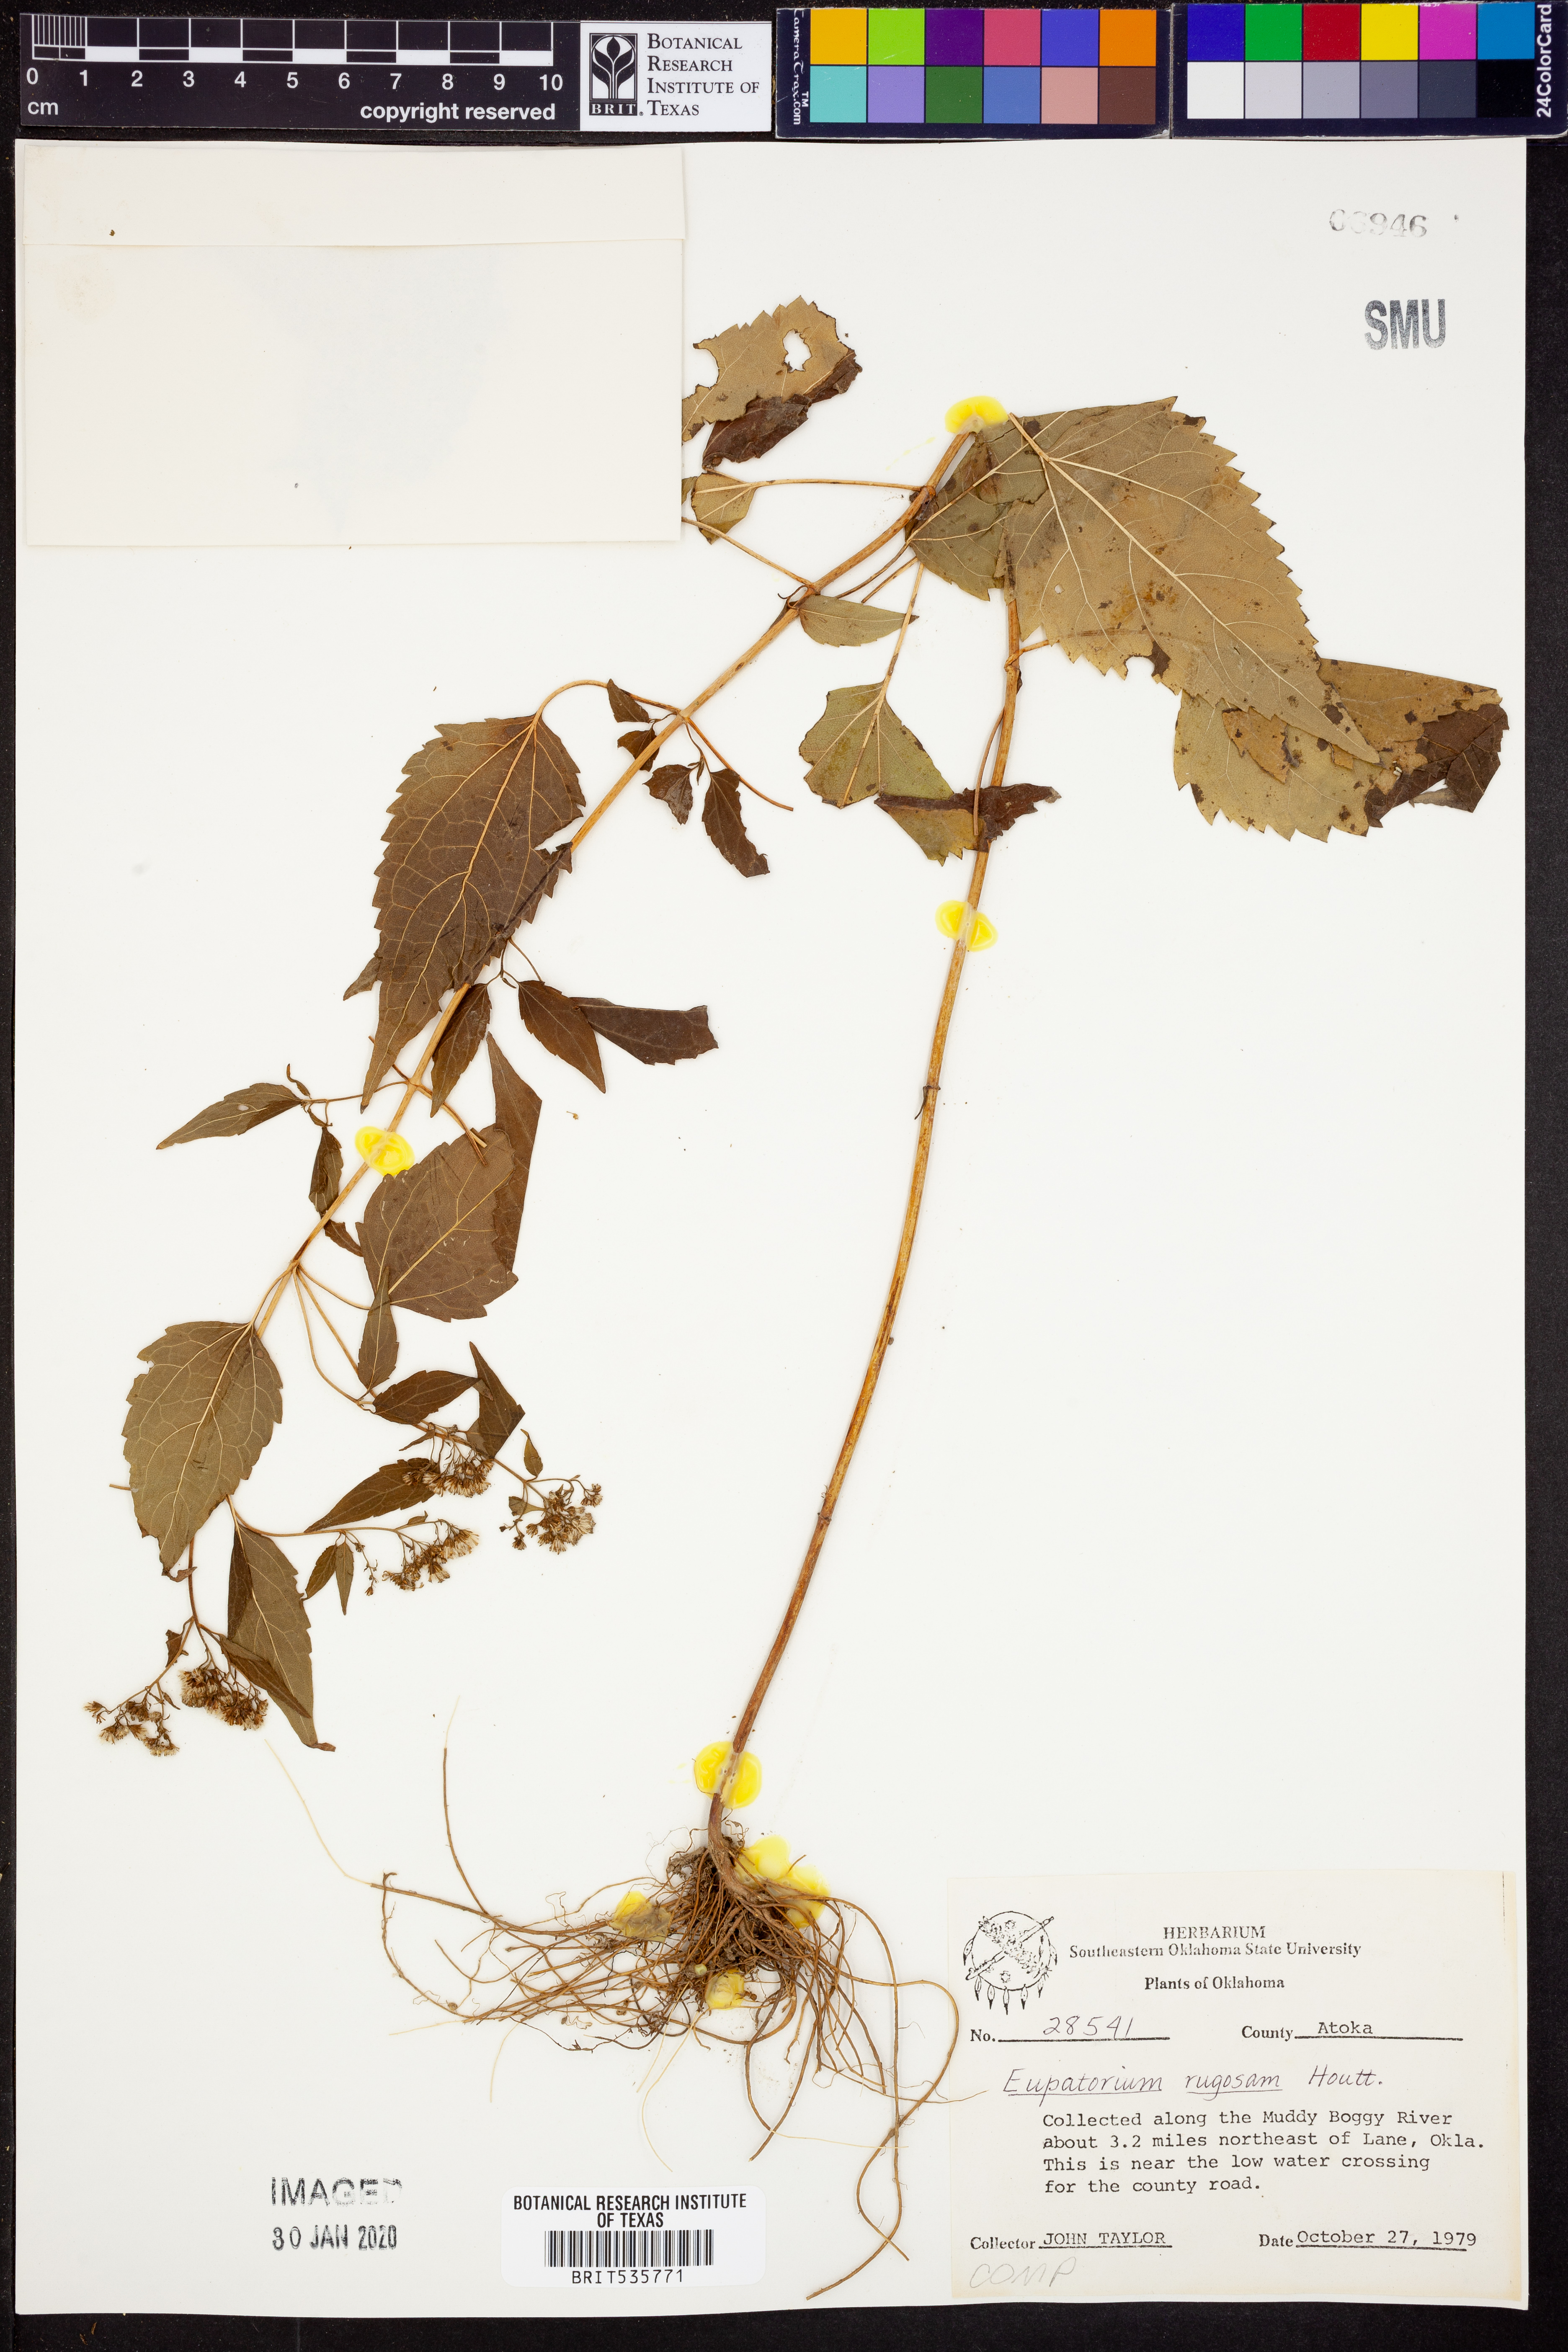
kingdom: Plantae
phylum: Tracheophyta
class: Magnoliopsida
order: Asterales
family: Asteraceae
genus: Cronquistianthus
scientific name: Cronquistianthus bulliferus
